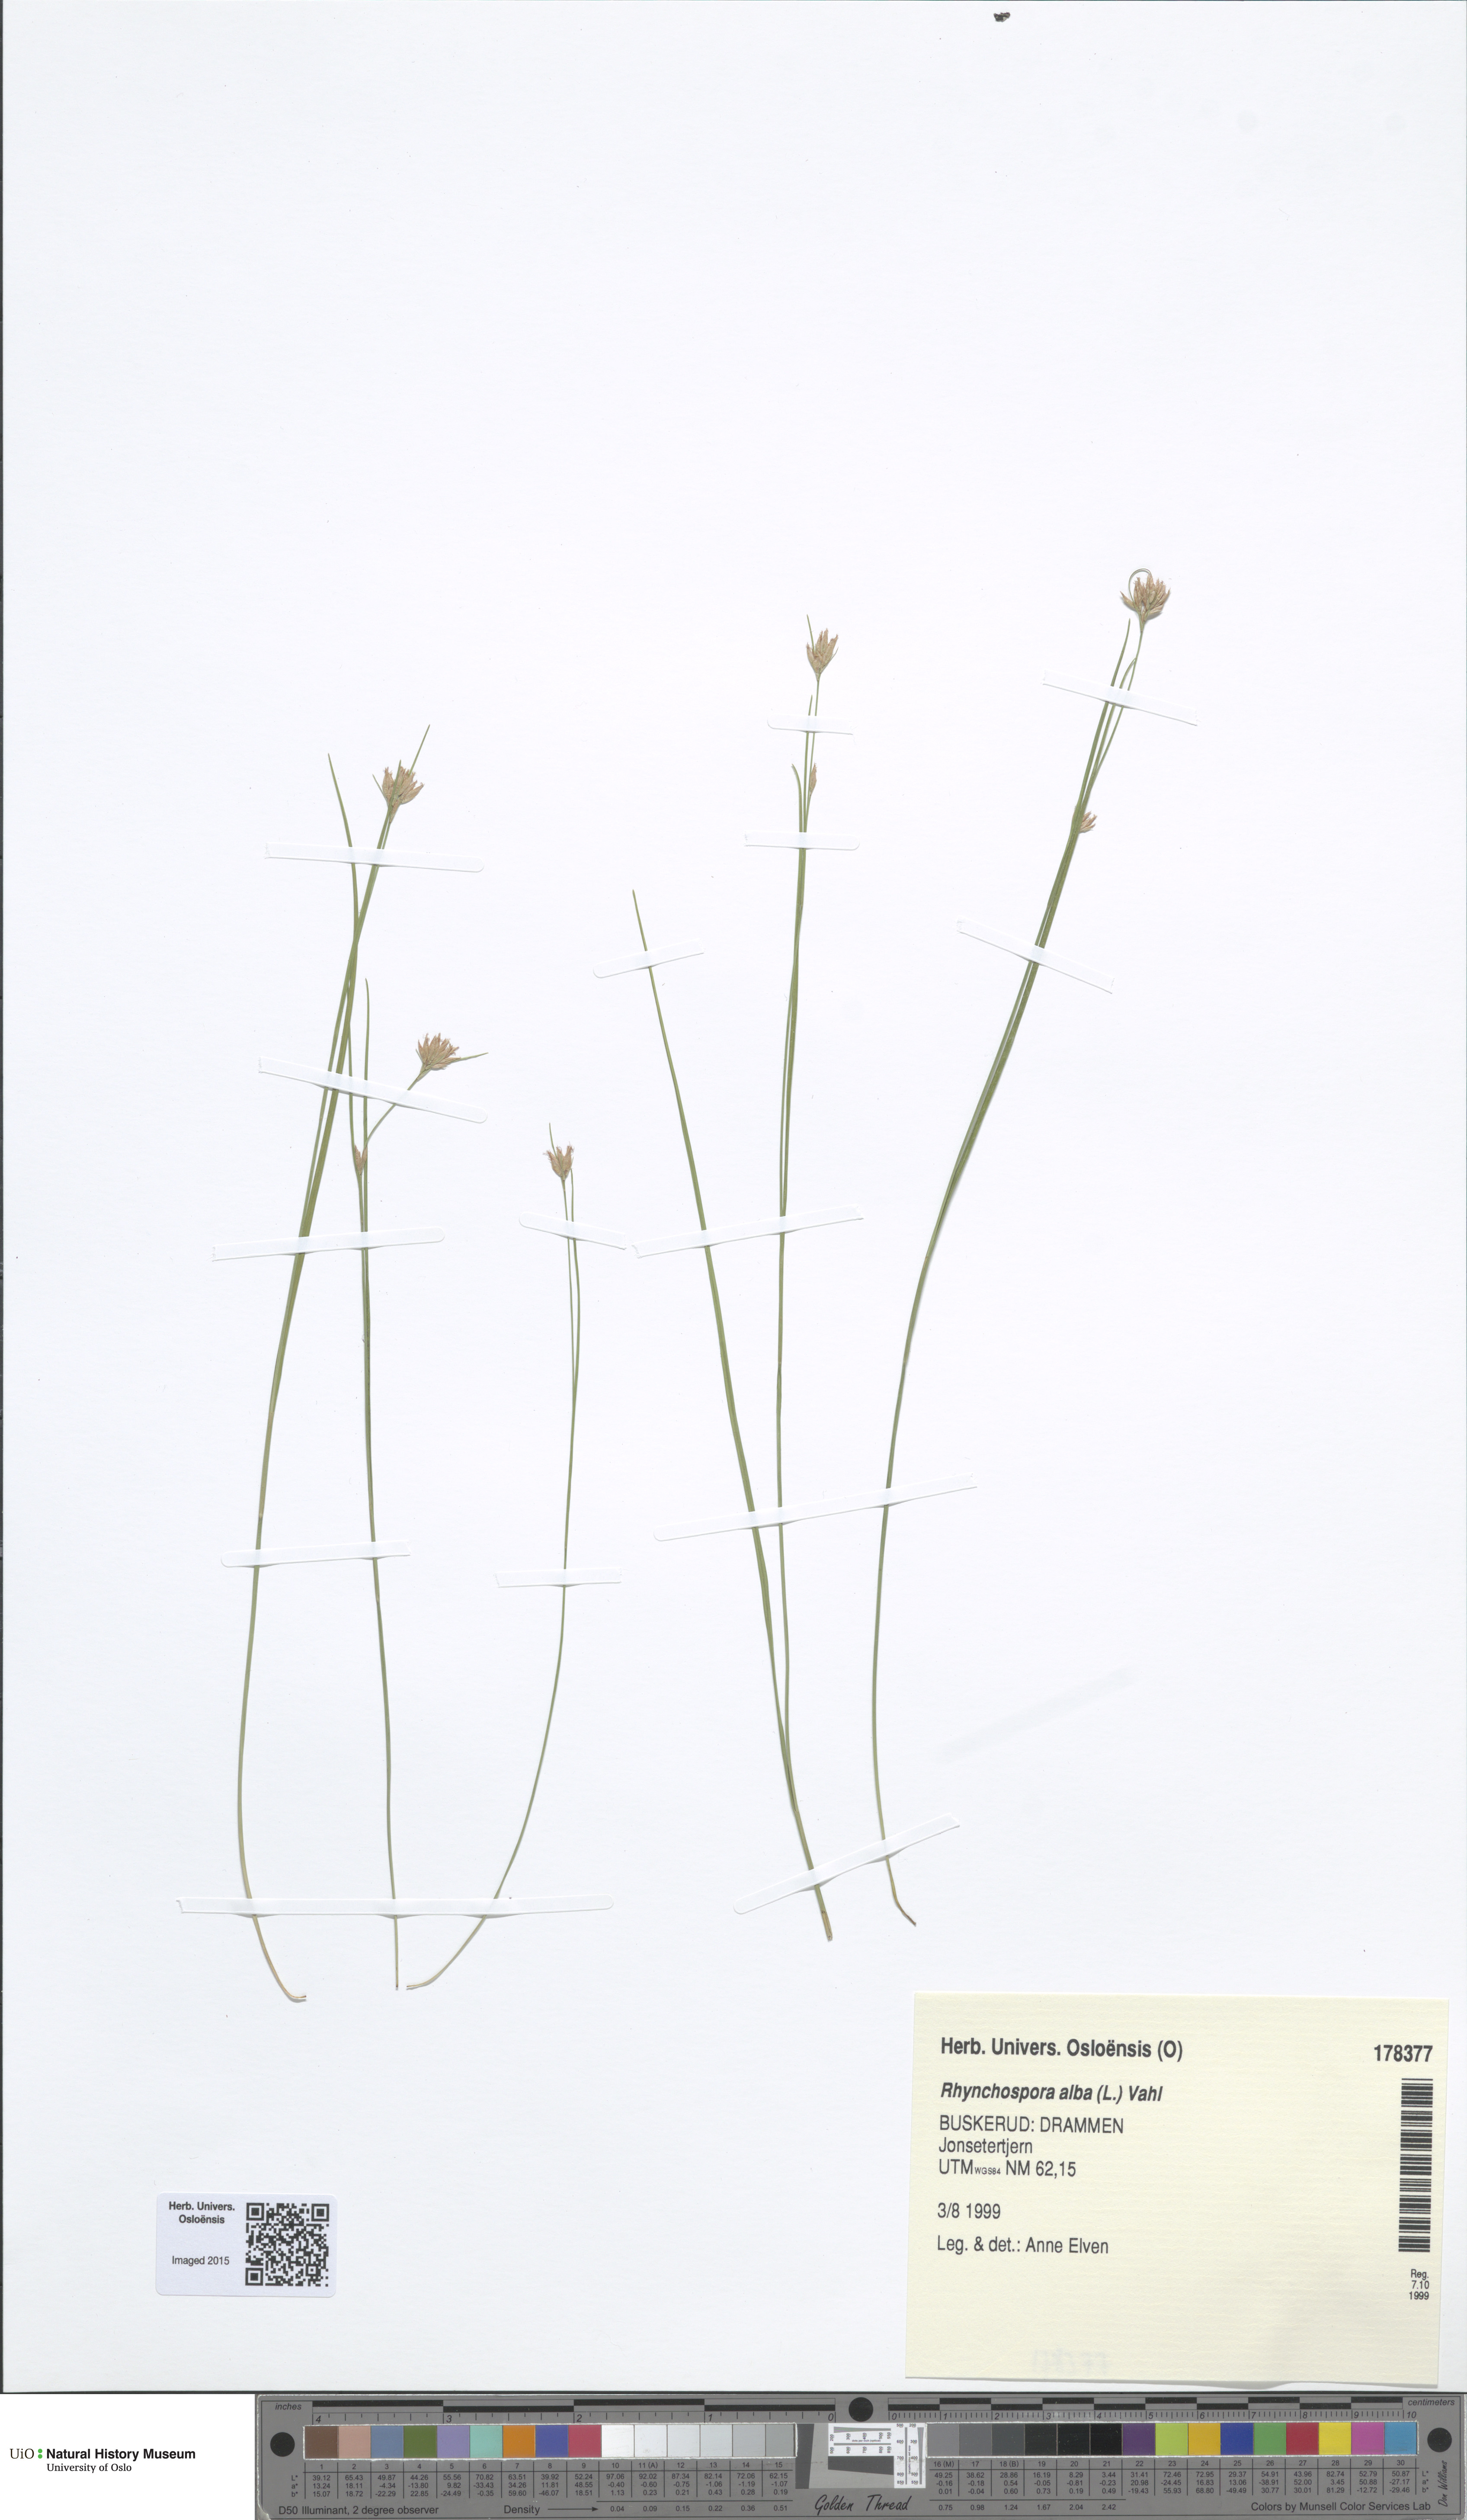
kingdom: Plantae
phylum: Tracheophyta
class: Liliopsida
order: Poales
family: Cyperaceae
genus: Rhynchospora
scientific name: Rhynchospora alba
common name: White beak-sedge
